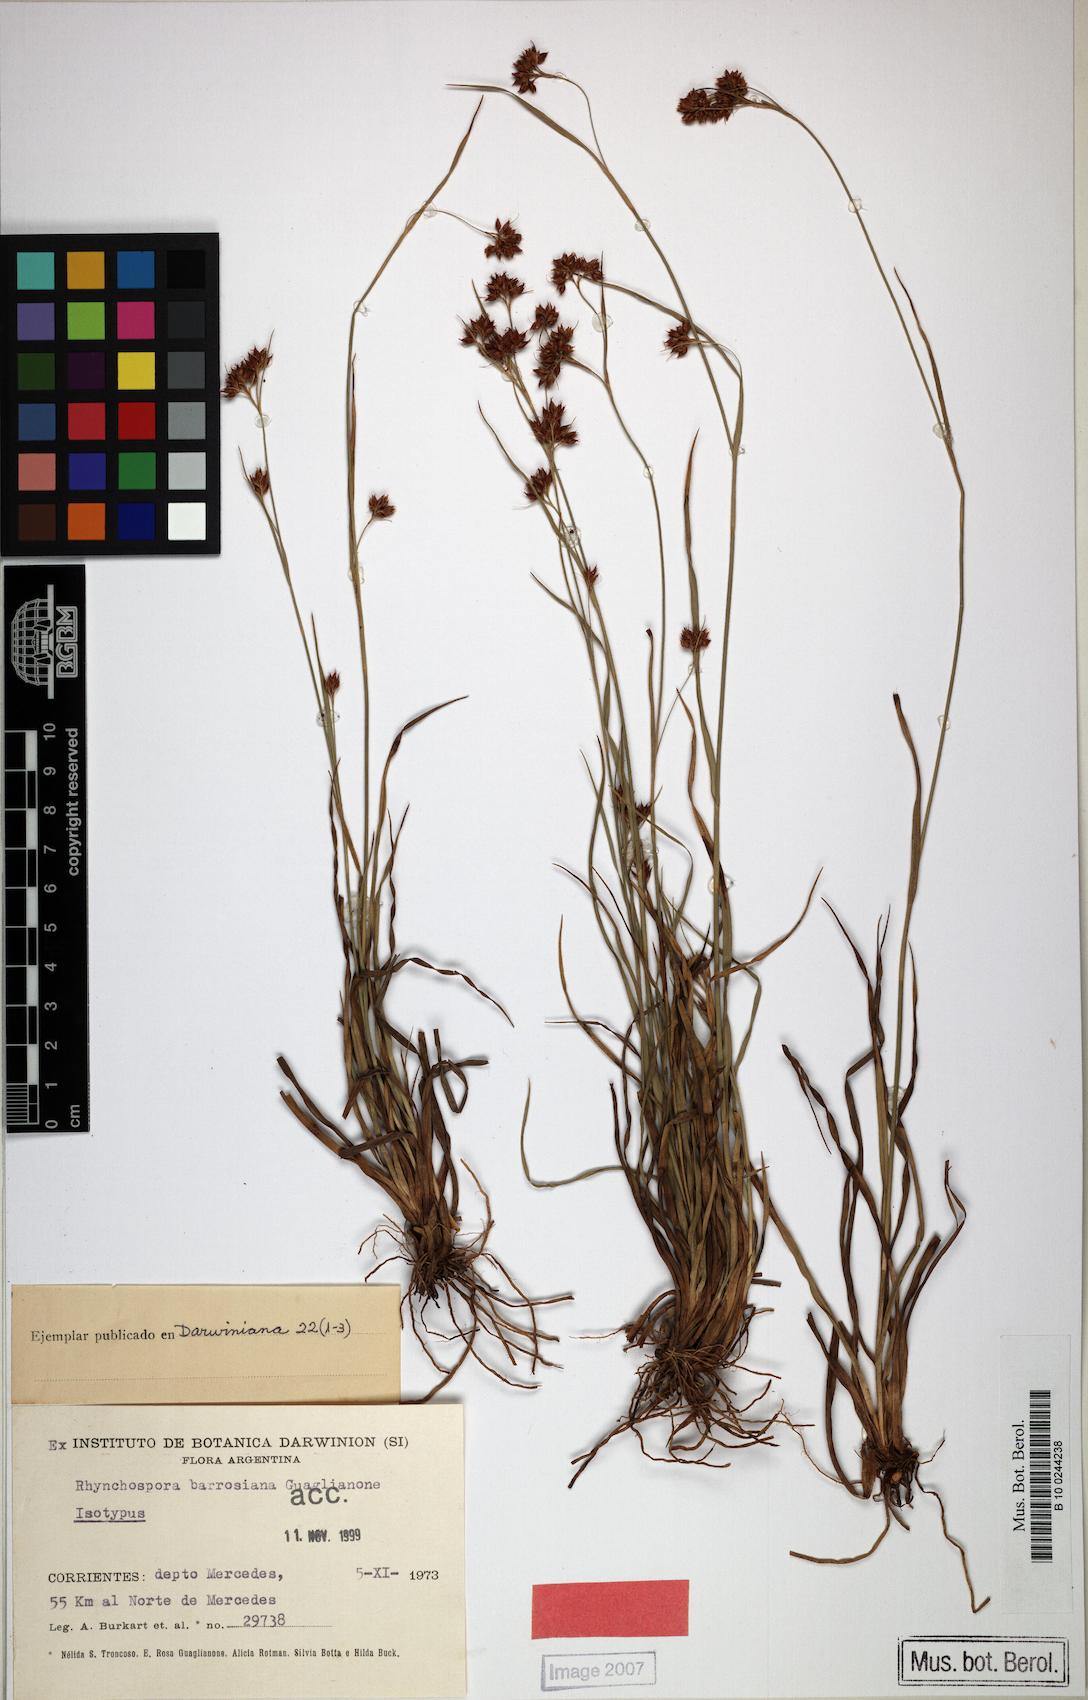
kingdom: Plantae
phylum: Tracheophyta
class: Liliopsida
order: Poales
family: Cyperaceae
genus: Rhynchospora
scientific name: Rhynchospora barrosiana
